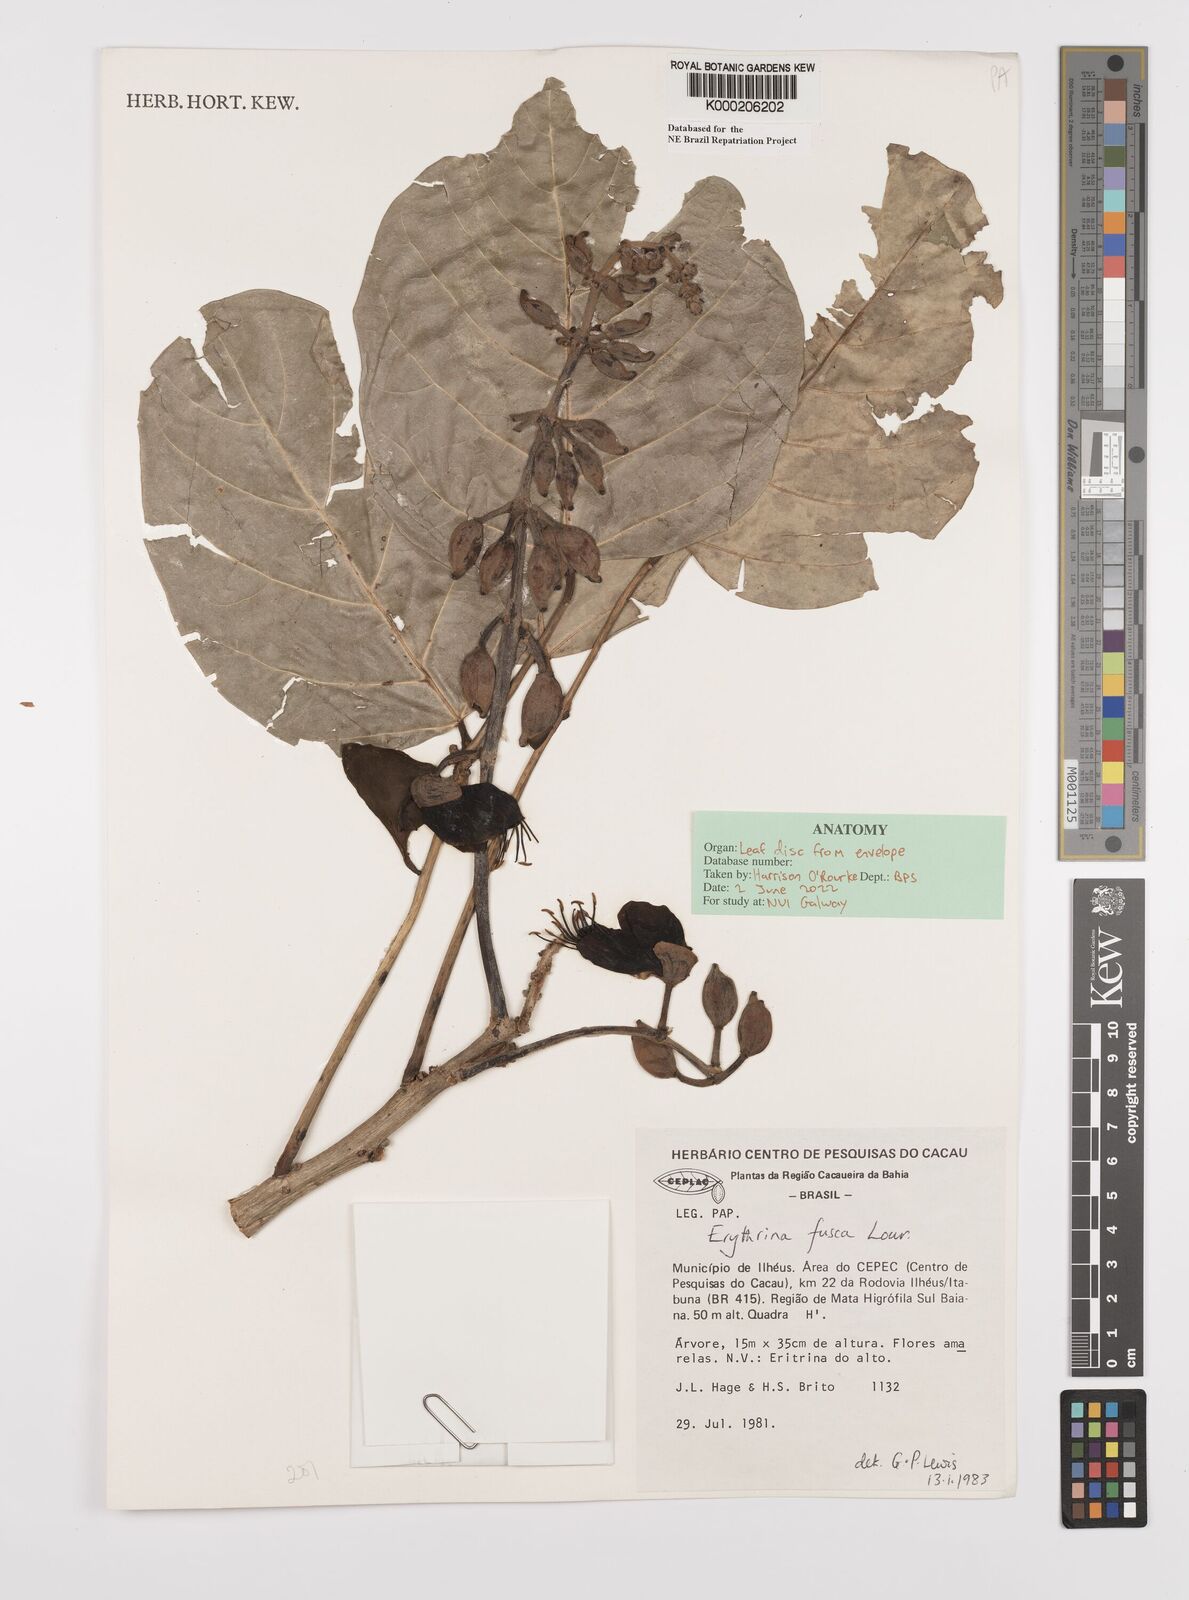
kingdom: Plantae
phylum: Tracheophyta
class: Magnoliopsida
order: Fabales
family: Fabaceae
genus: Erythrina
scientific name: Erythrina fusca
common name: Coral-bean
